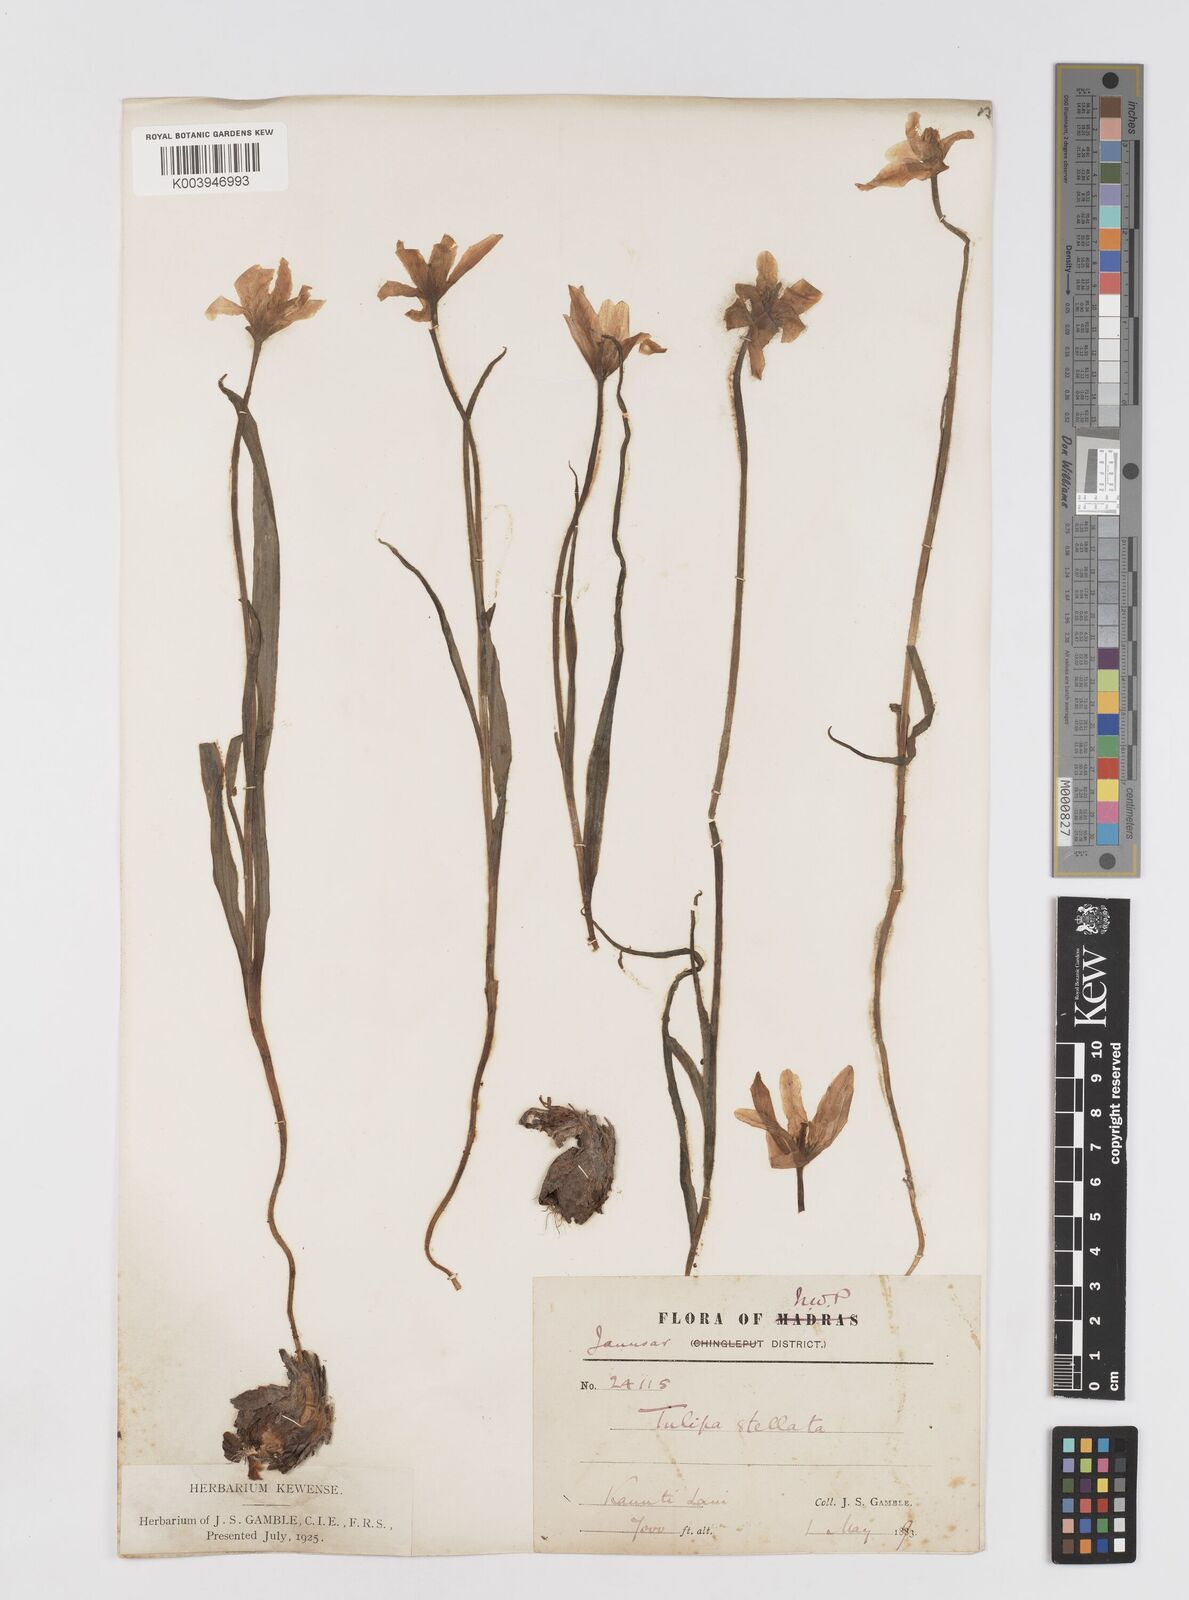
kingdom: Plantae
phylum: Tracheophyta
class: Liliopsida
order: Liliales
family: Liliaceae
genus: Tulipa
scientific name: Tulipa clusiana
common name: Lady tulip
